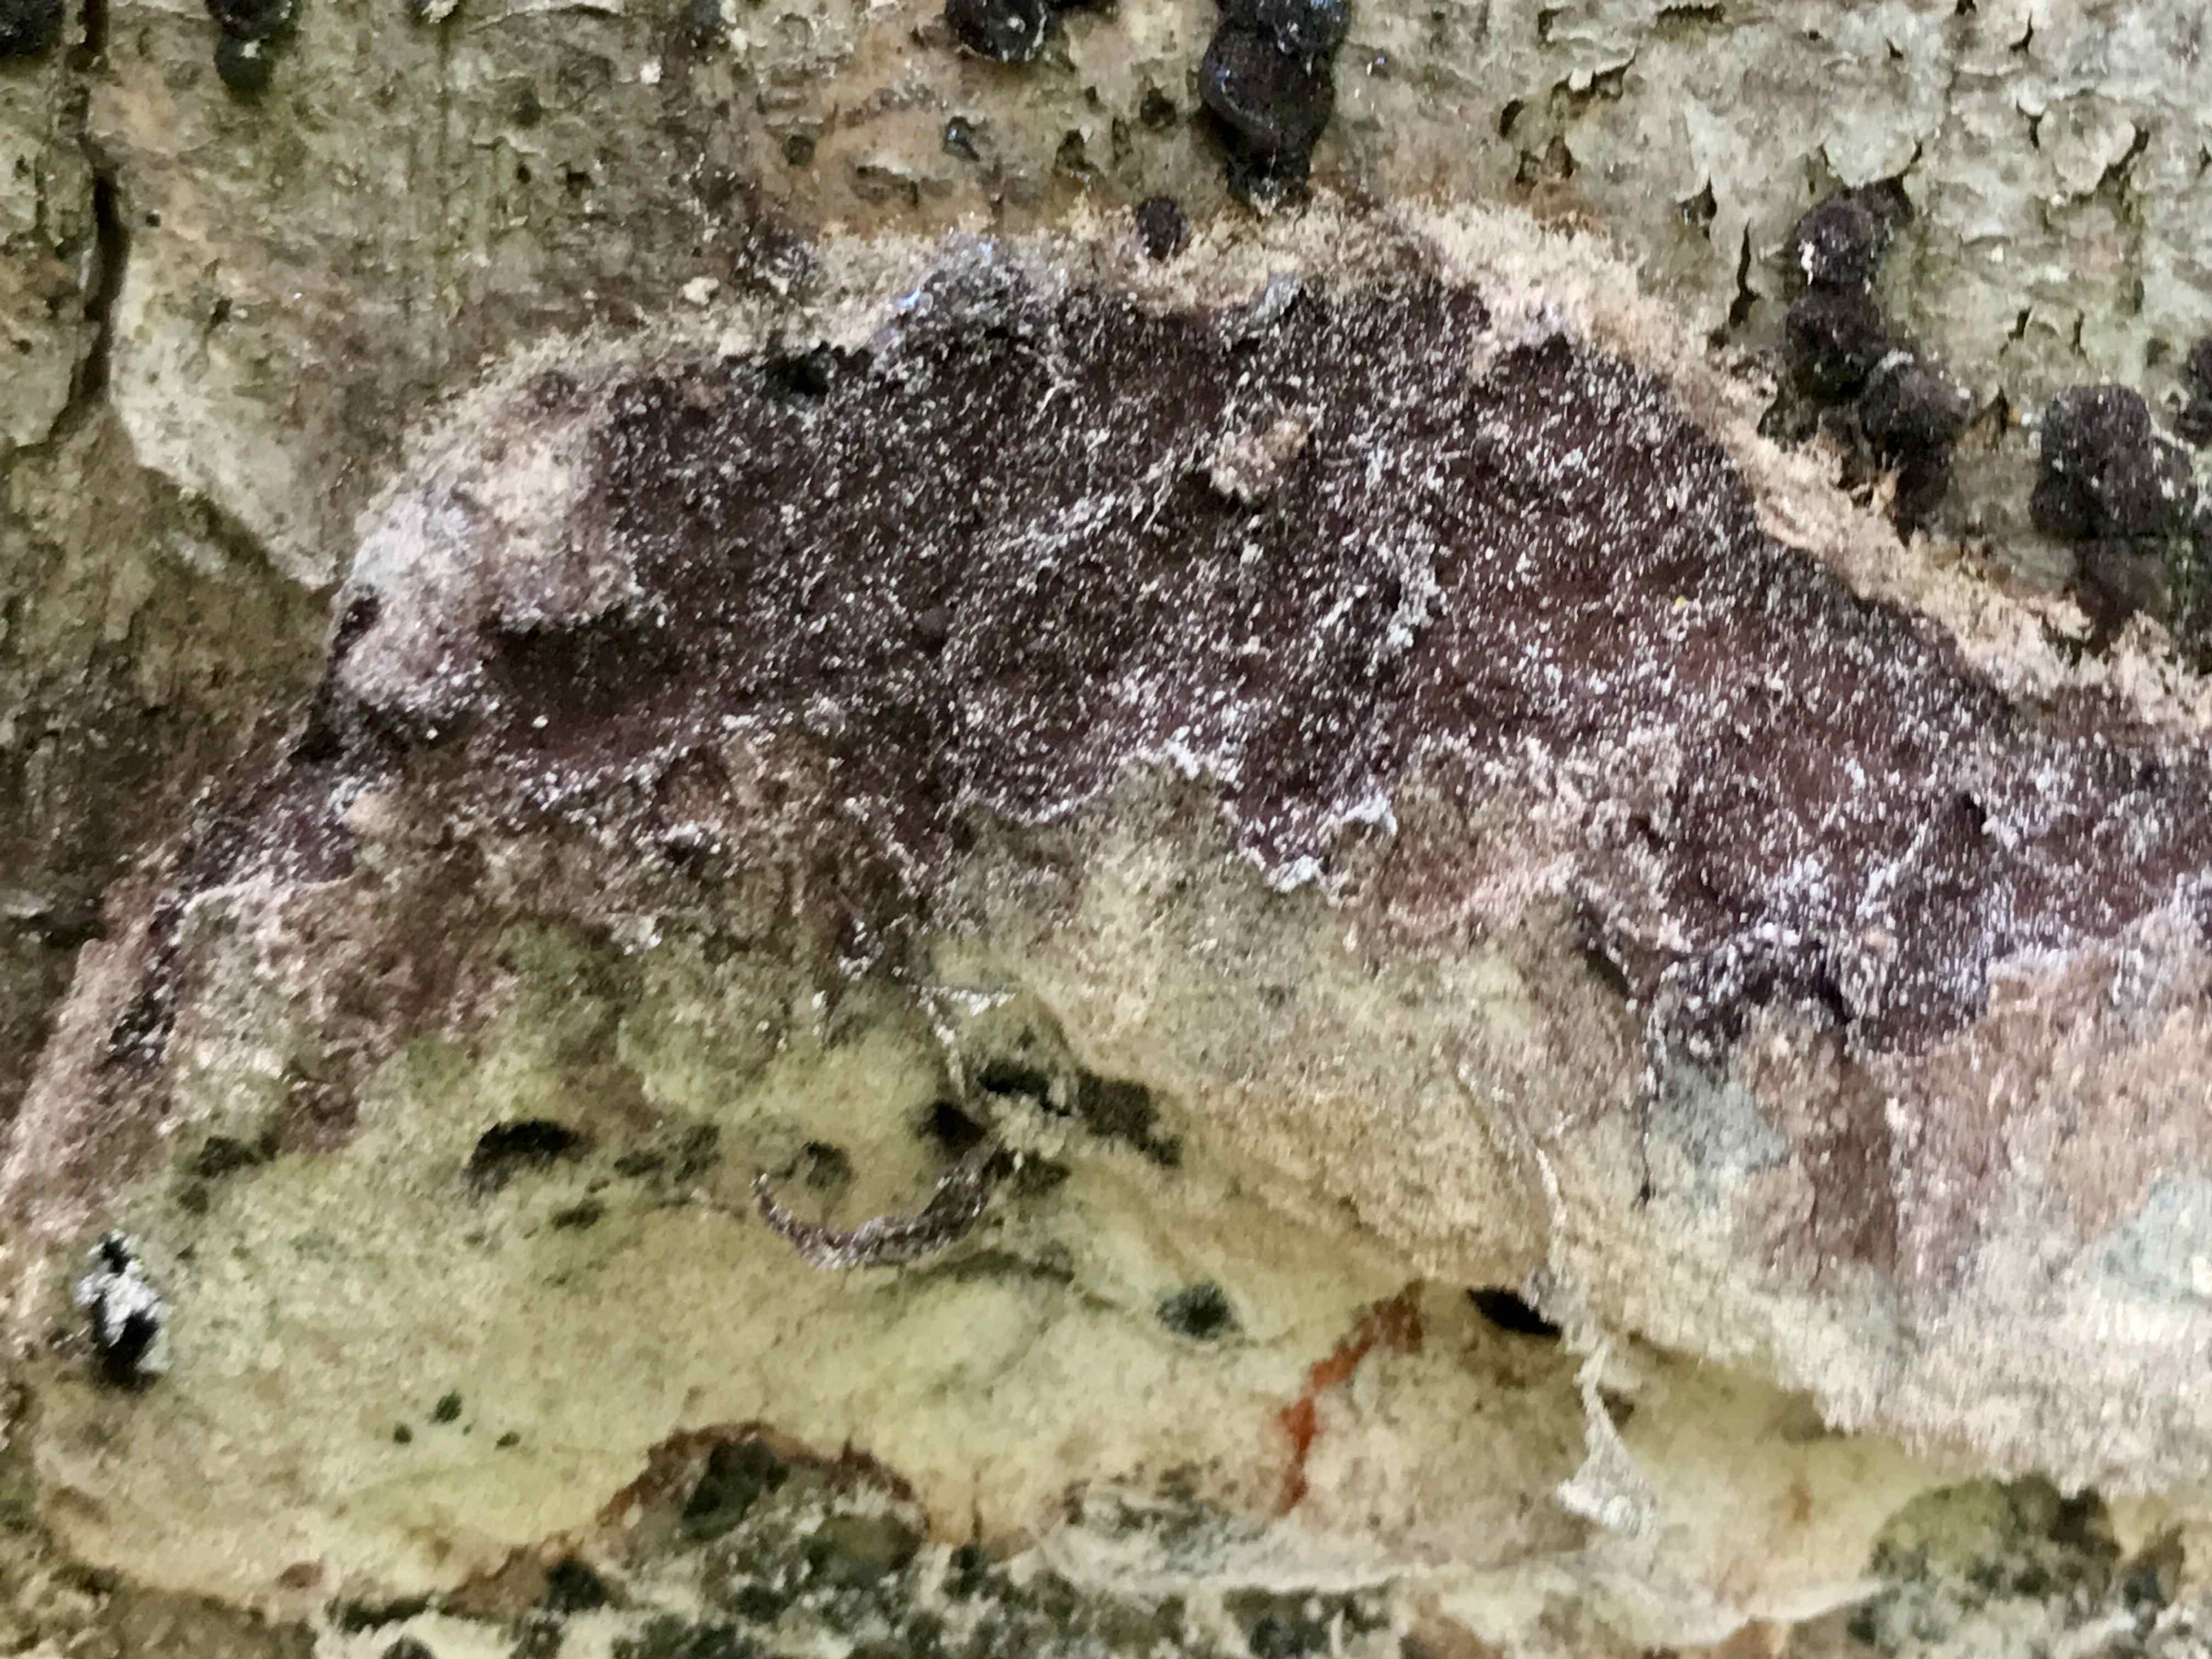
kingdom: Protozoa
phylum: Mycetozoa
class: Myxomycetes
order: Physarales
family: Physaraceae
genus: Fuligo
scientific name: Fuligo septica
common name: Dog vomit slime mold
